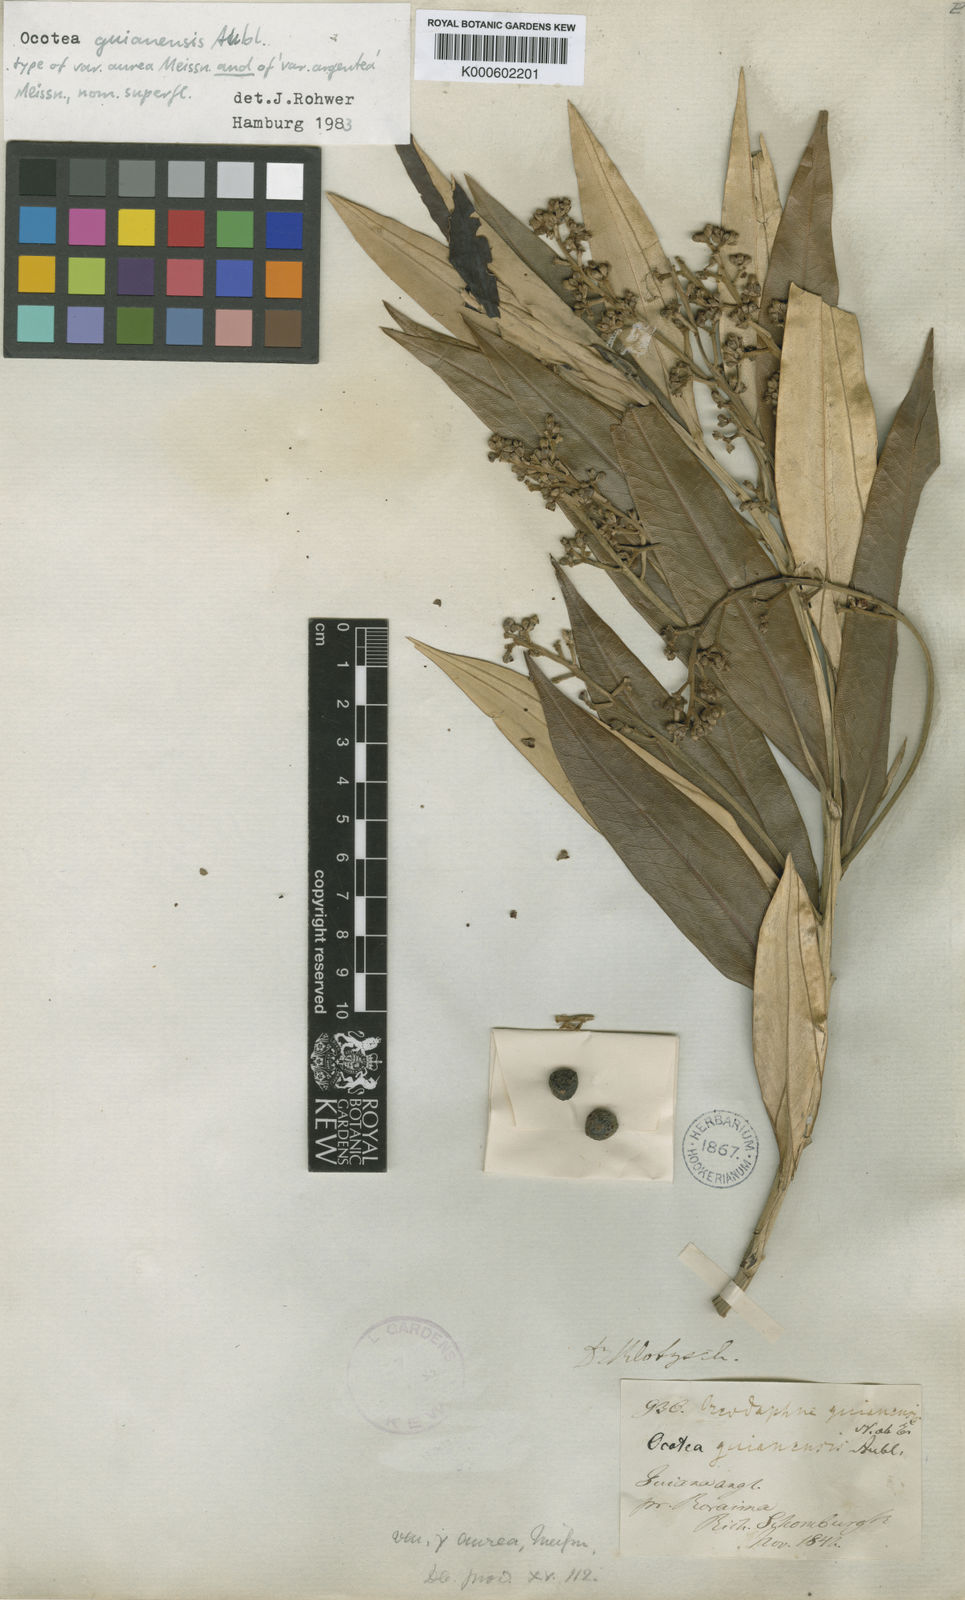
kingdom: Plantae
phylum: Tracheophyta
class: Magnoliopsida
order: Laurales
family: Lauraceae
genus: Ocotea
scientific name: Ocotea guianensis
